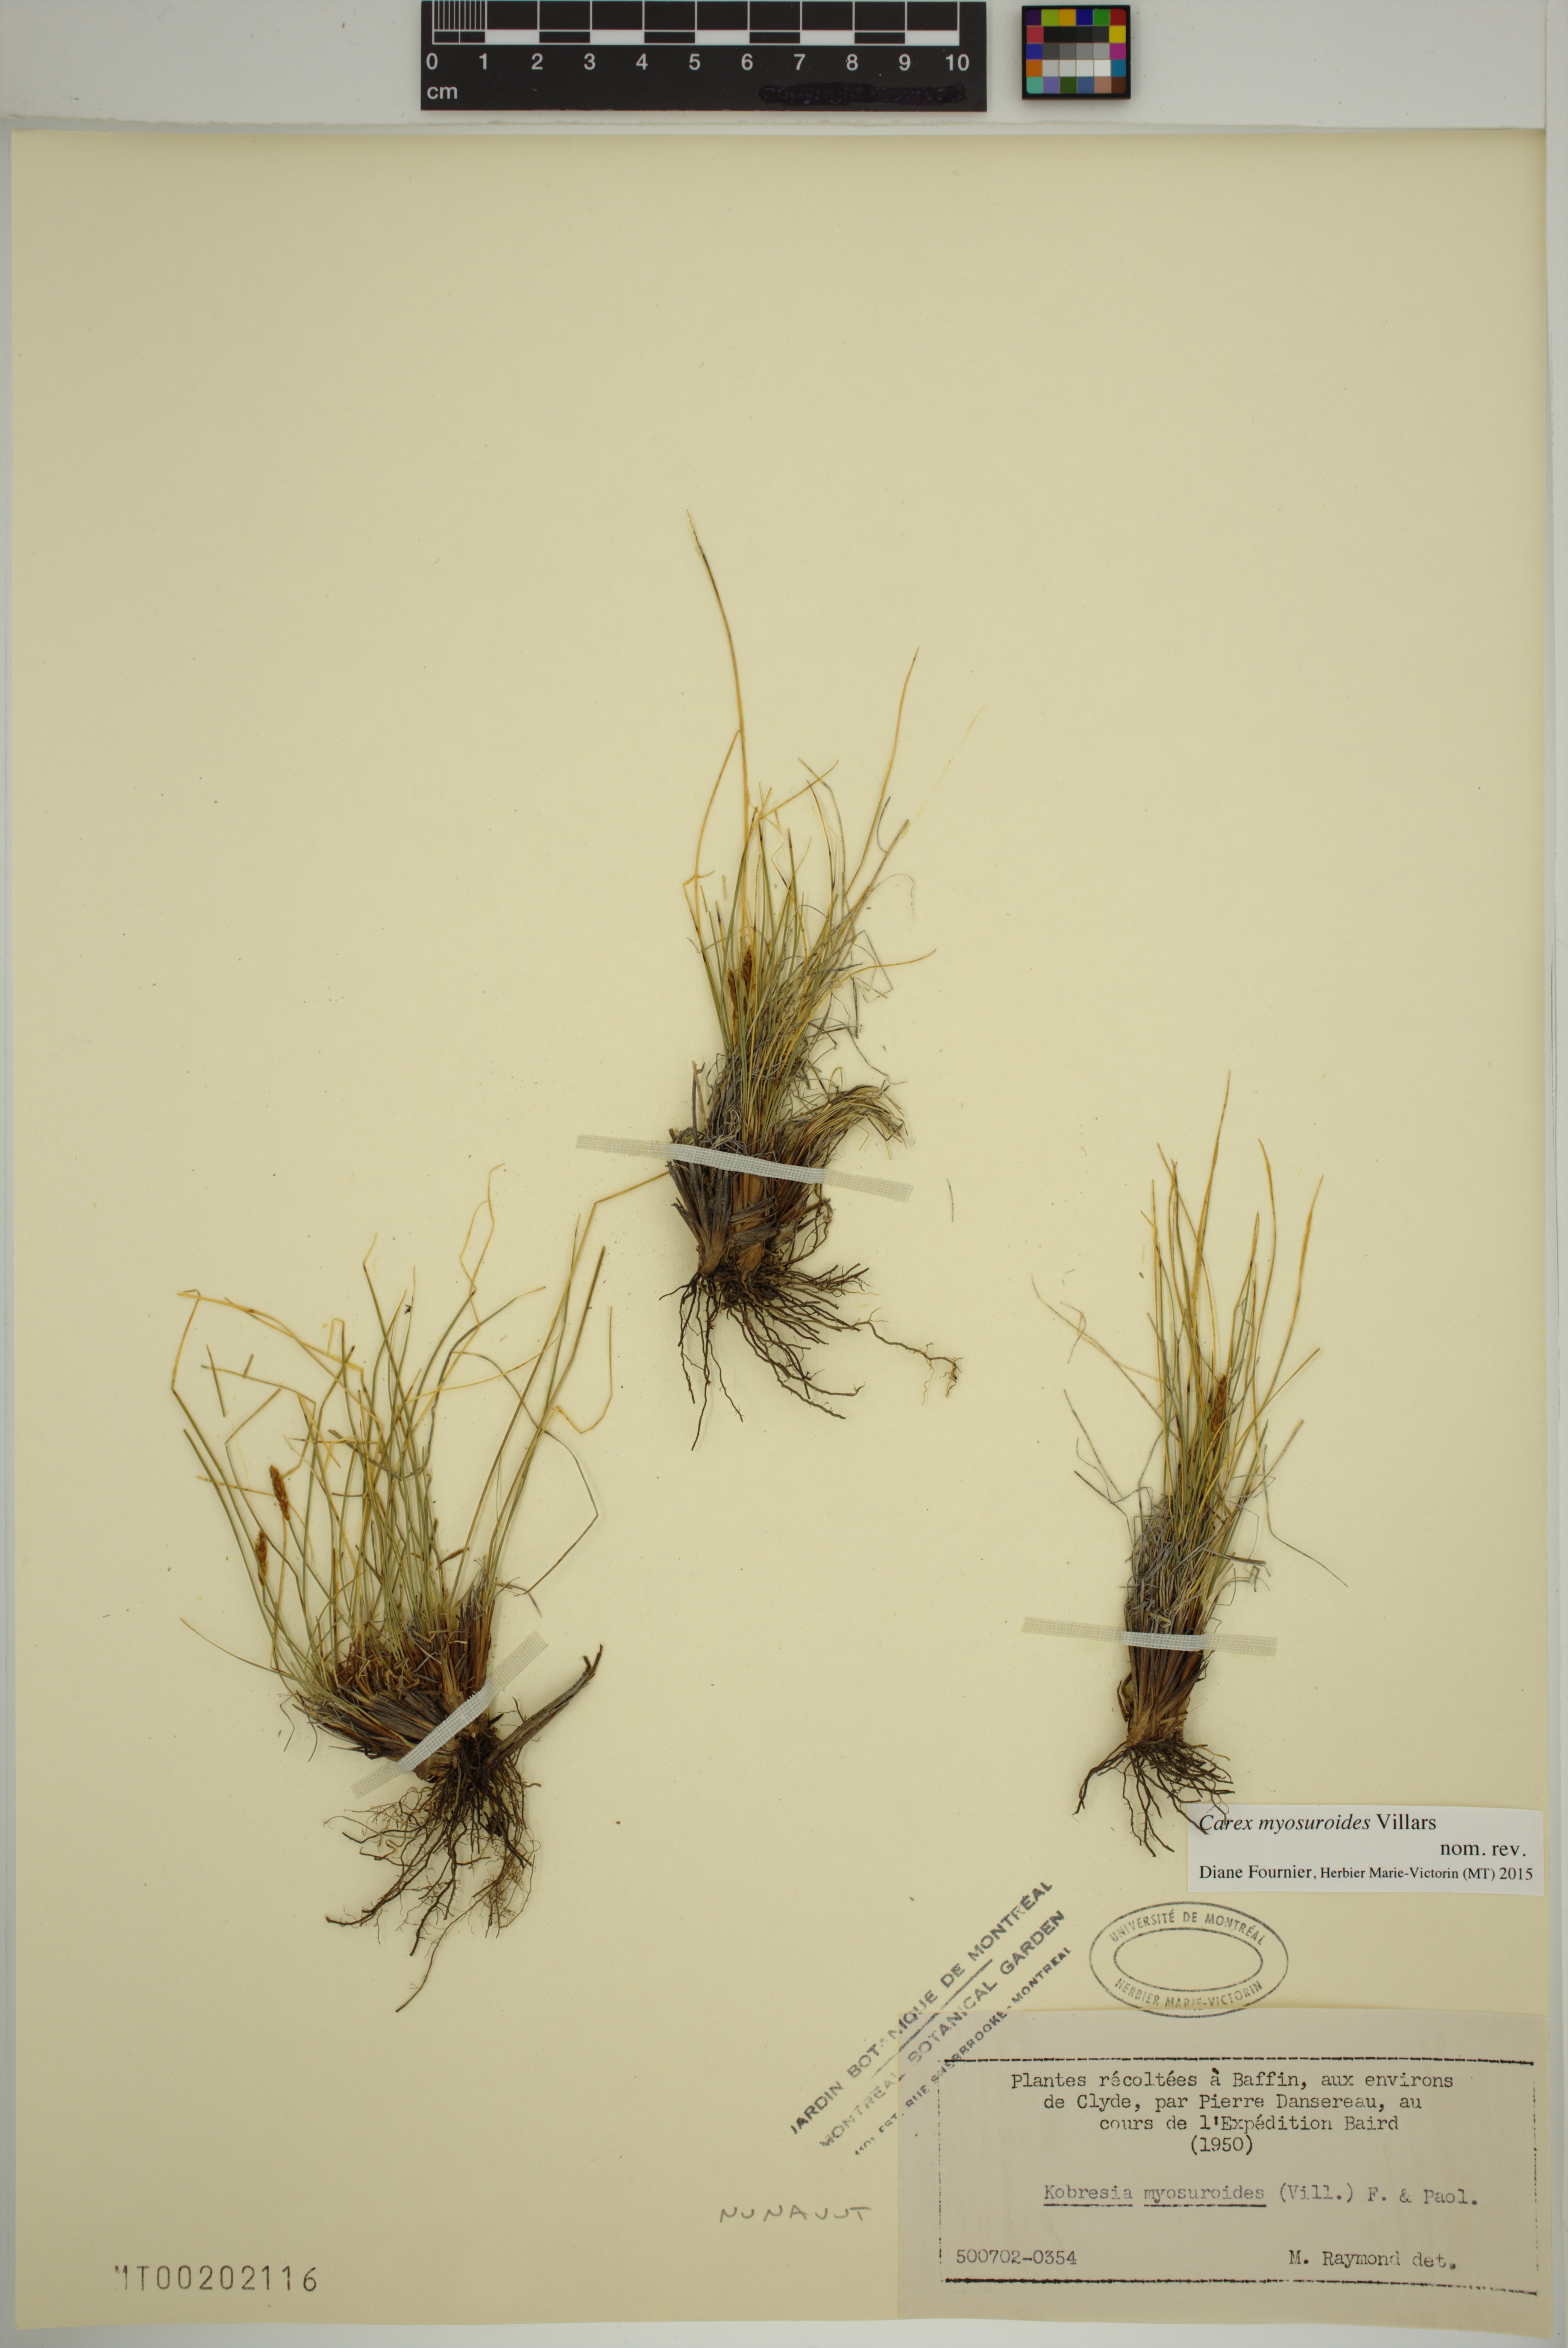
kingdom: Plantae
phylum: Tracheophyta
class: Liliopsida
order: Poales
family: Cyperaceae
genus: Carex
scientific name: Carex myosuroides
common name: Bellard's bog sedge
